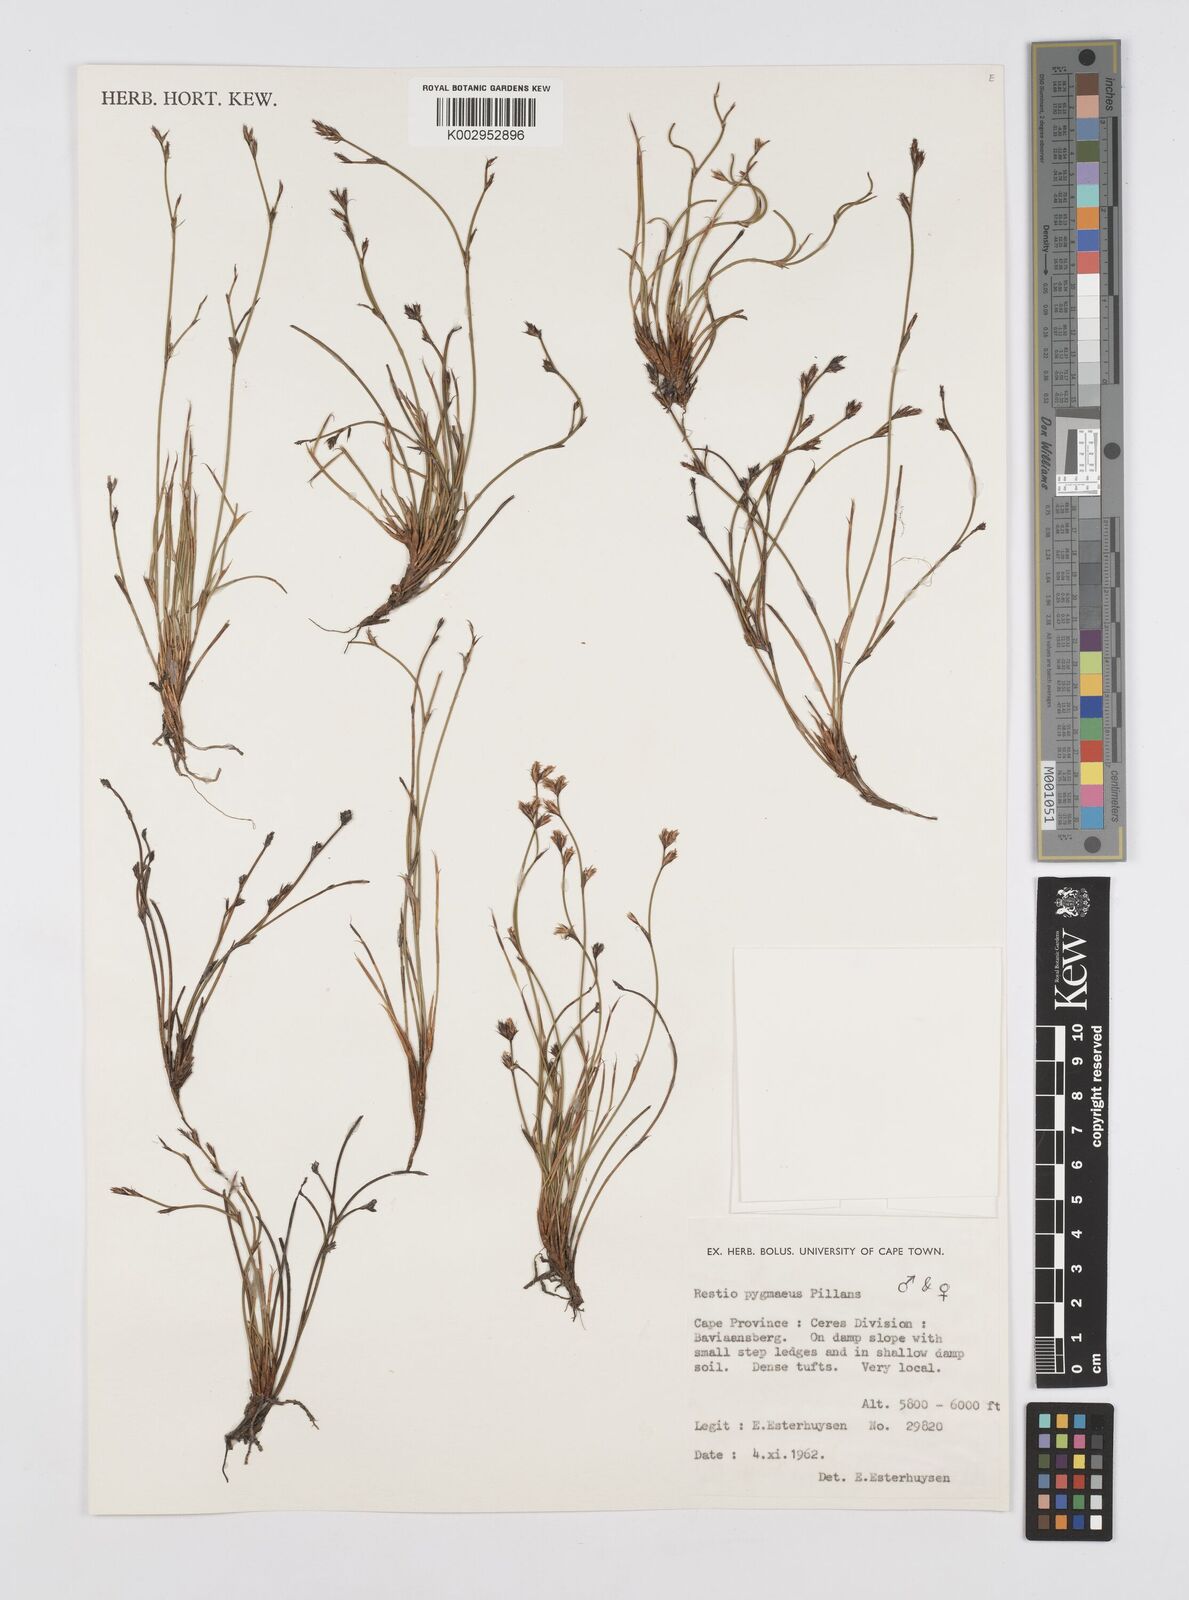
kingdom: Plantae
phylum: Tracheophyta
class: Liliopsida
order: Poales
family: Restionaceae
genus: Restio
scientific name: Restio pygmaeus
